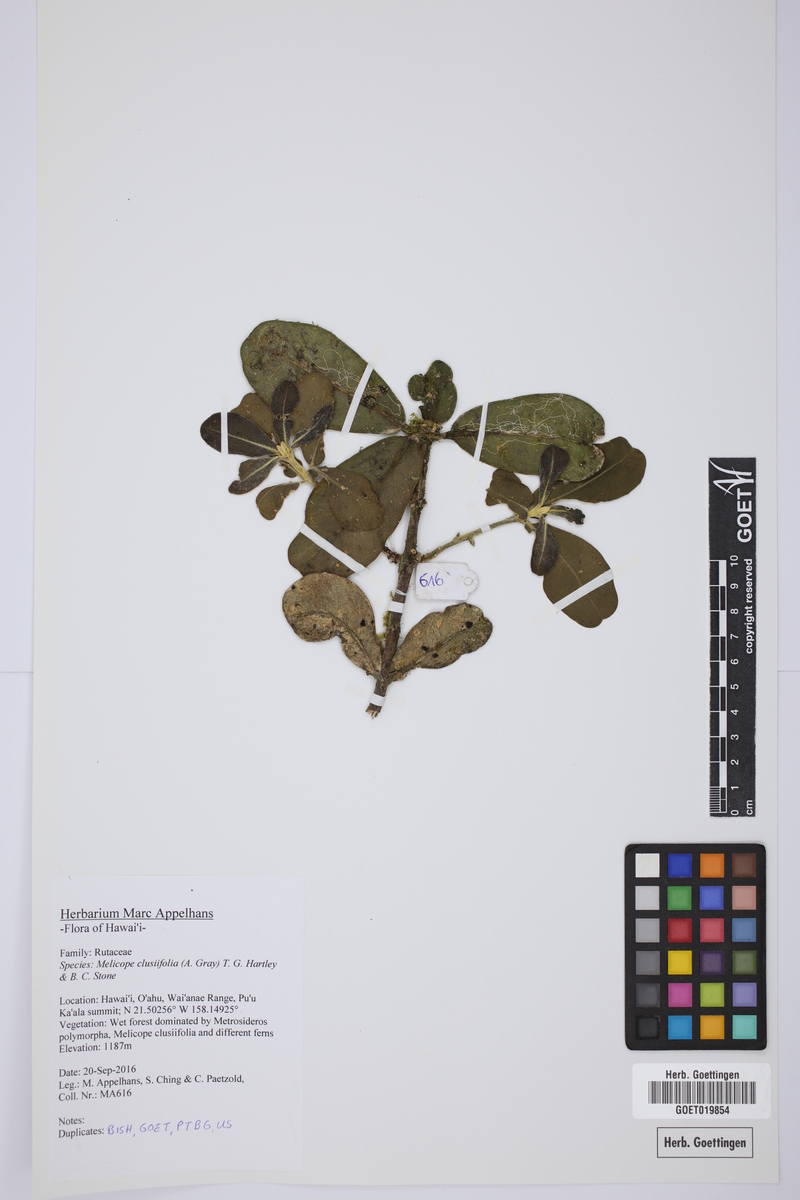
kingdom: Plantae
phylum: Tracheophyta
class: Magnoliopsida
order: Sapindales
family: Rutaceae
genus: Melicope
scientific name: Melicope clusiifolia
